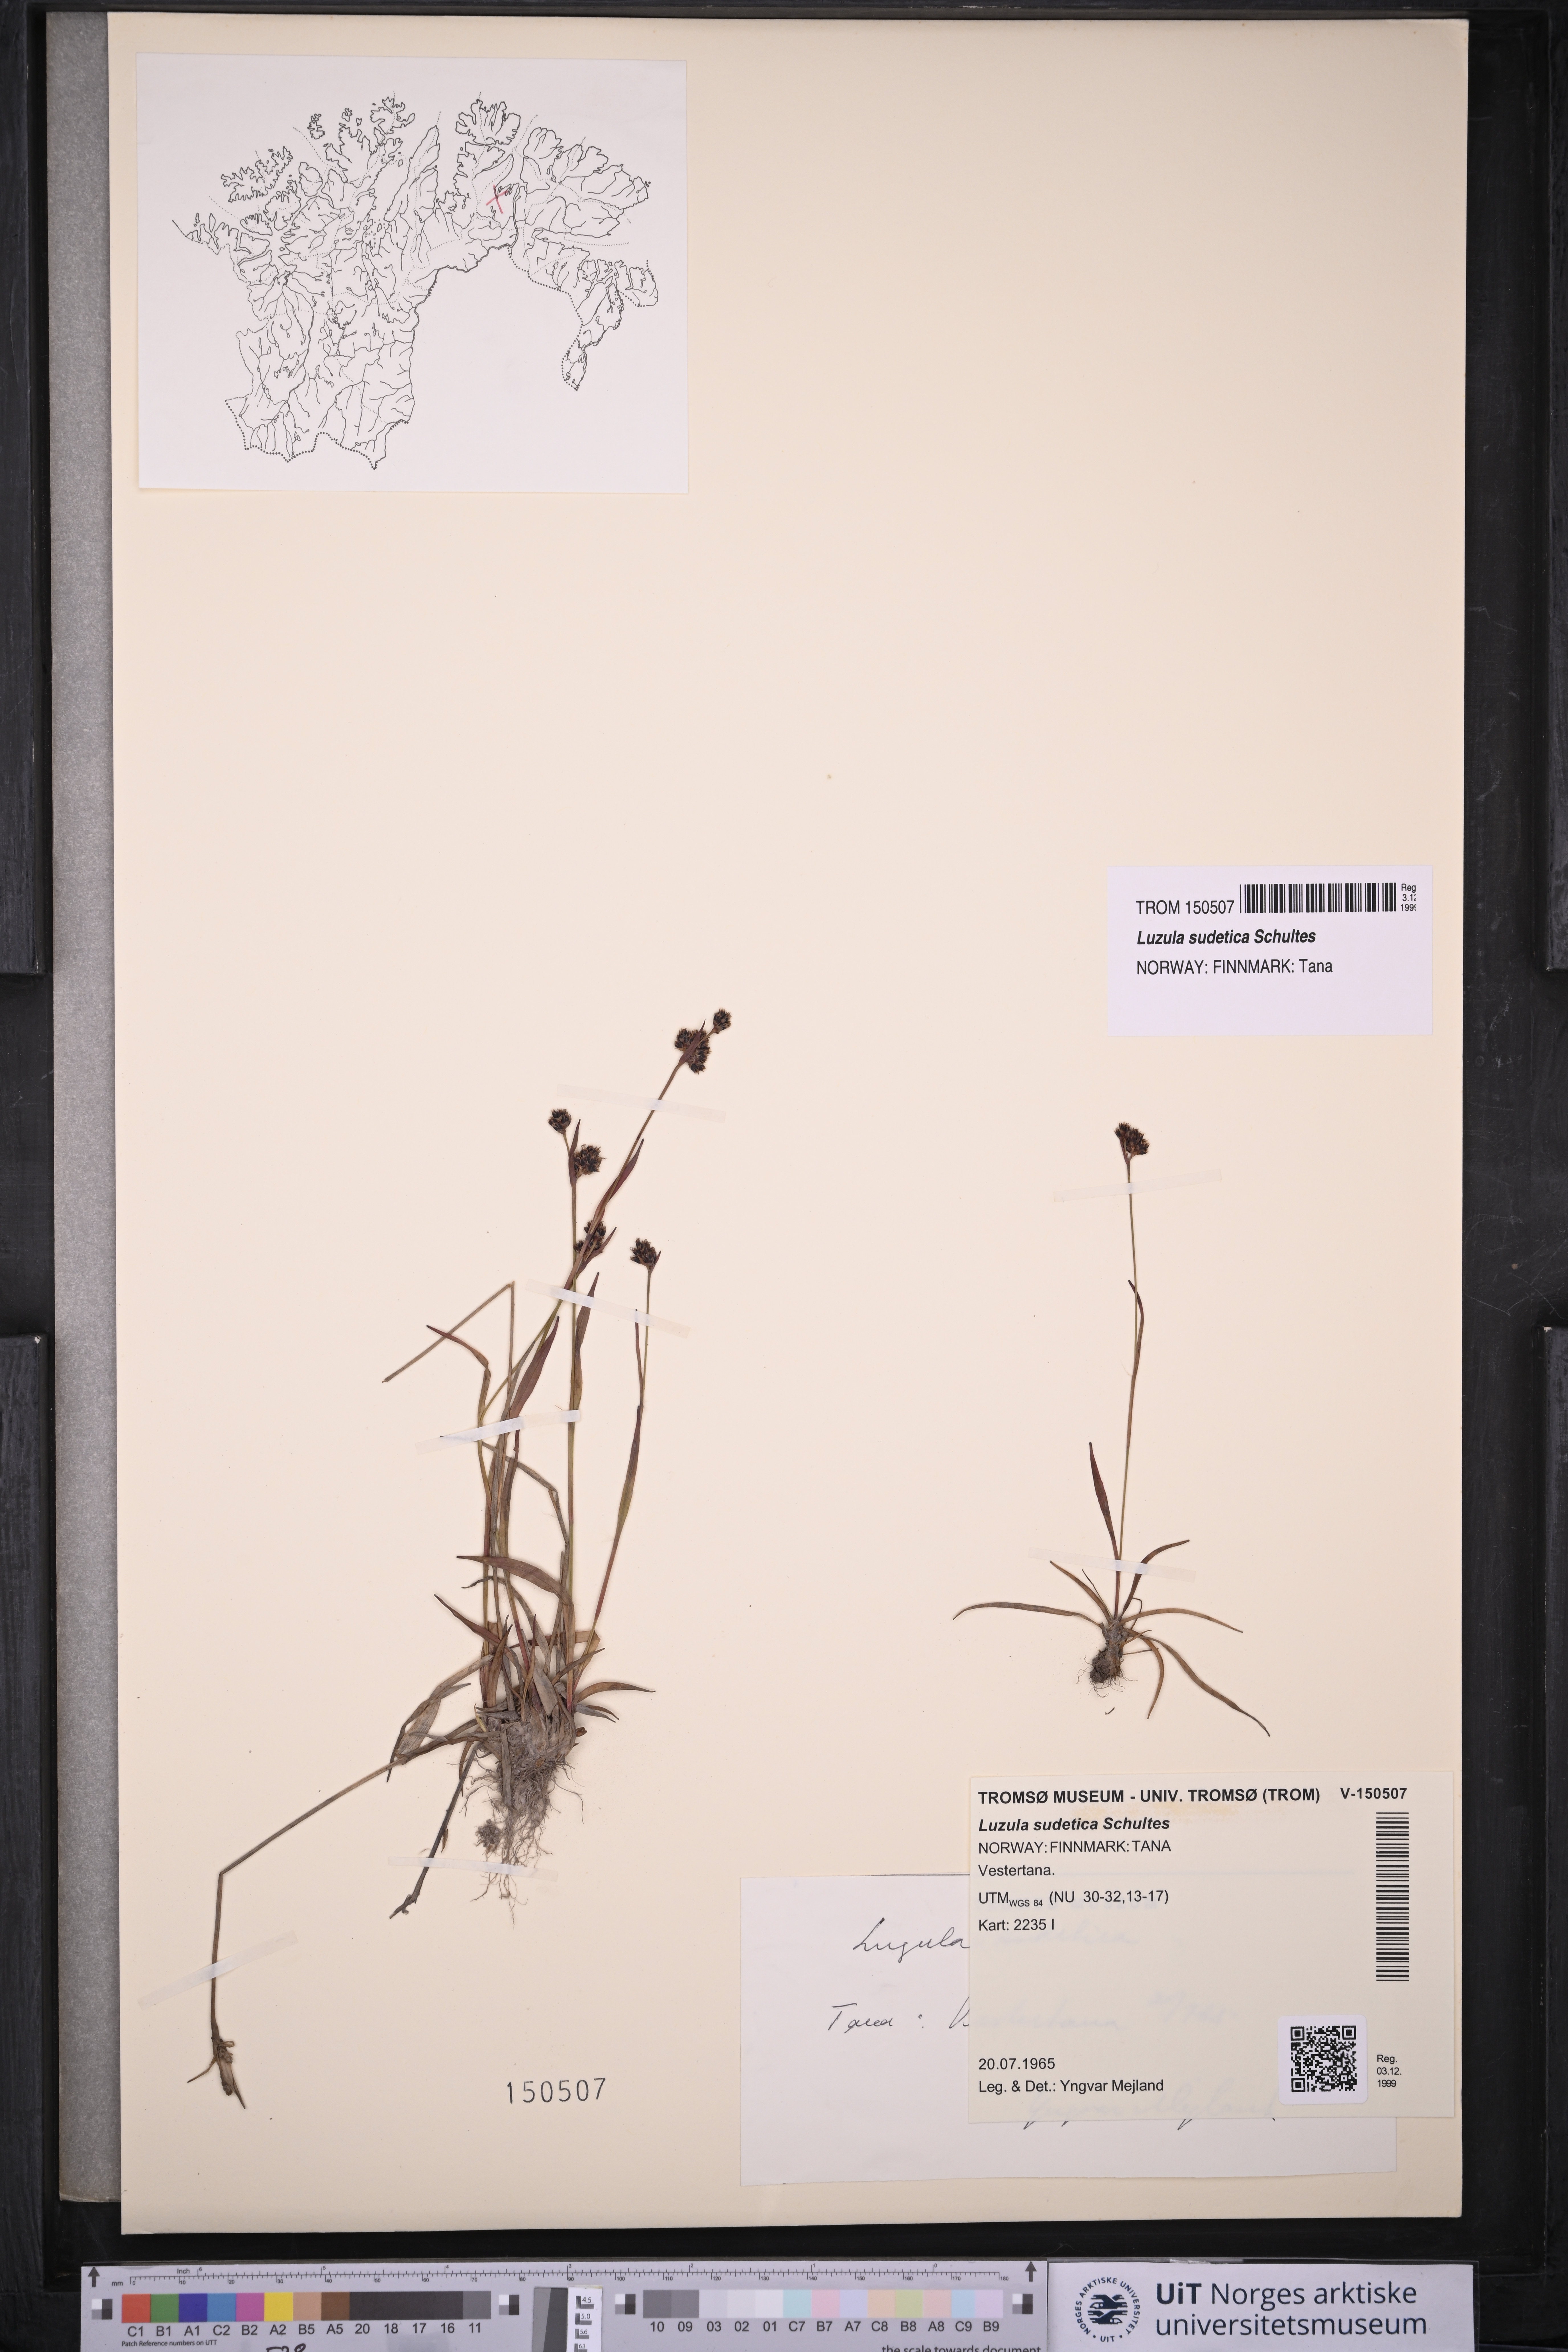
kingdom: Plantae
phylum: Tracheophyta
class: Liliopsida
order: Poales
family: Juncaceae
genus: Luzula
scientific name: Luzula sudetica
